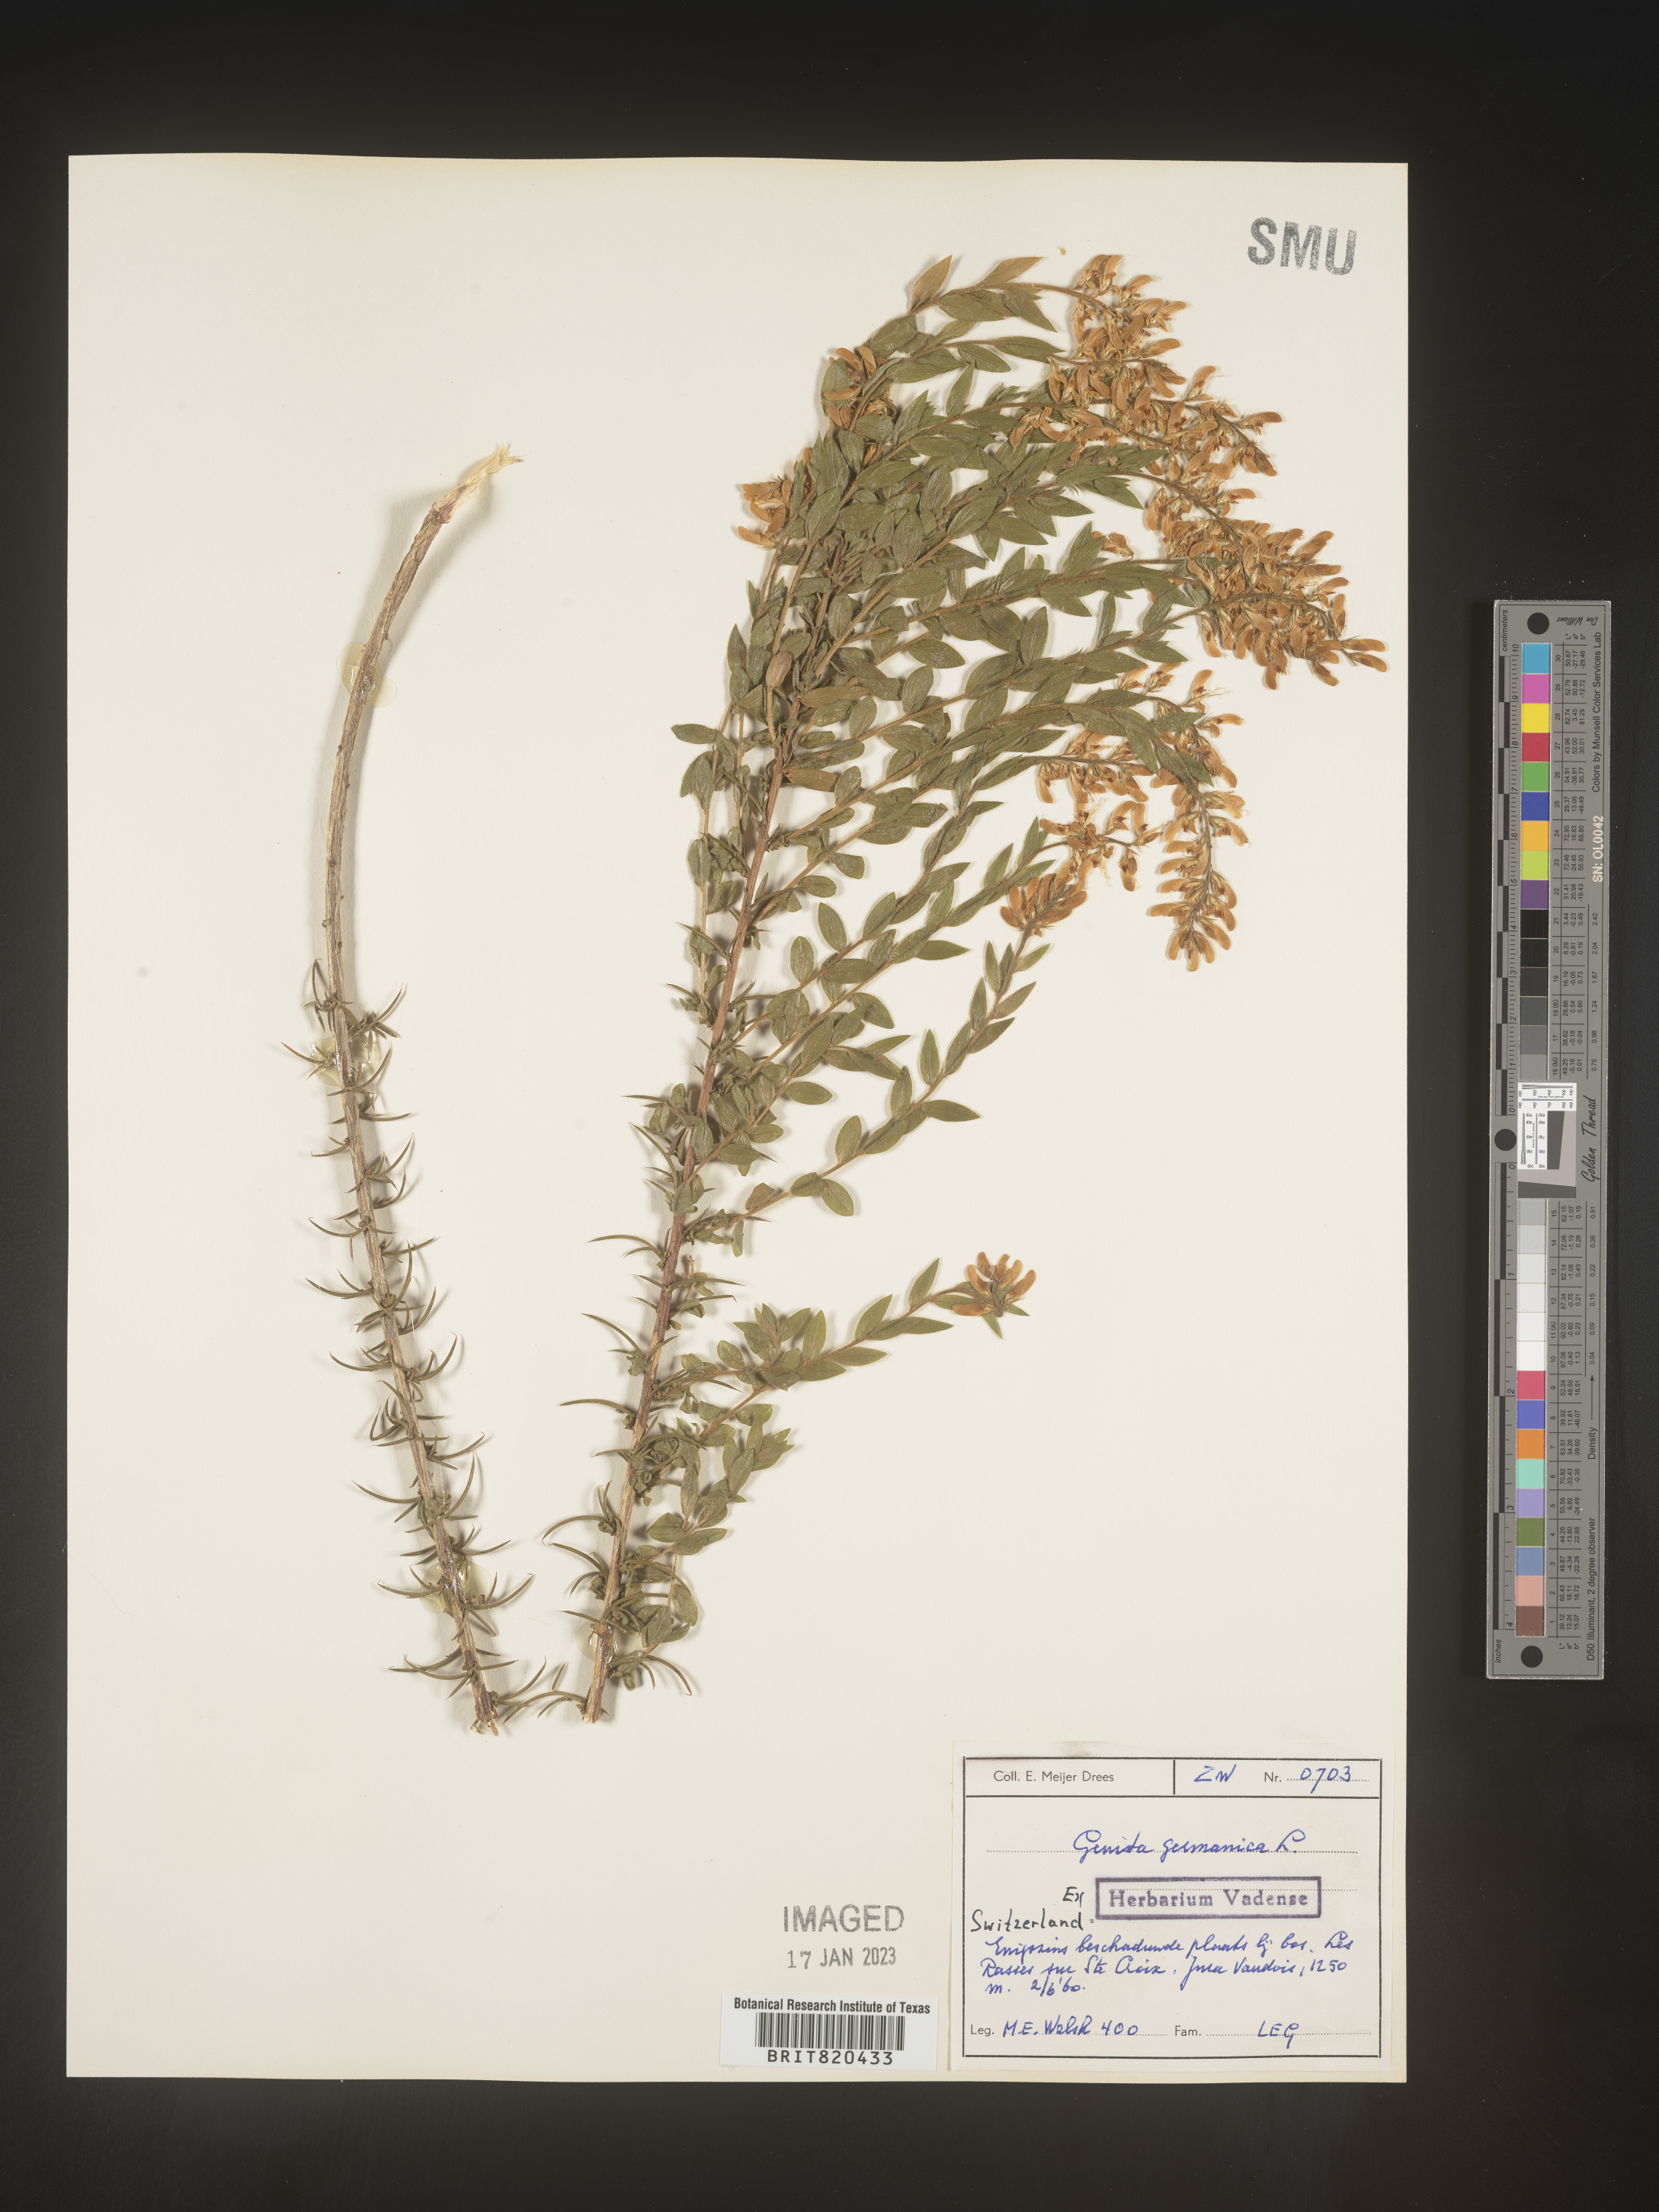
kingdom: Plantae
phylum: Tracheophyta
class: Magnoliopsida
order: Fabales
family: Fabaceae
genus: Genista
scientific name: Genista
